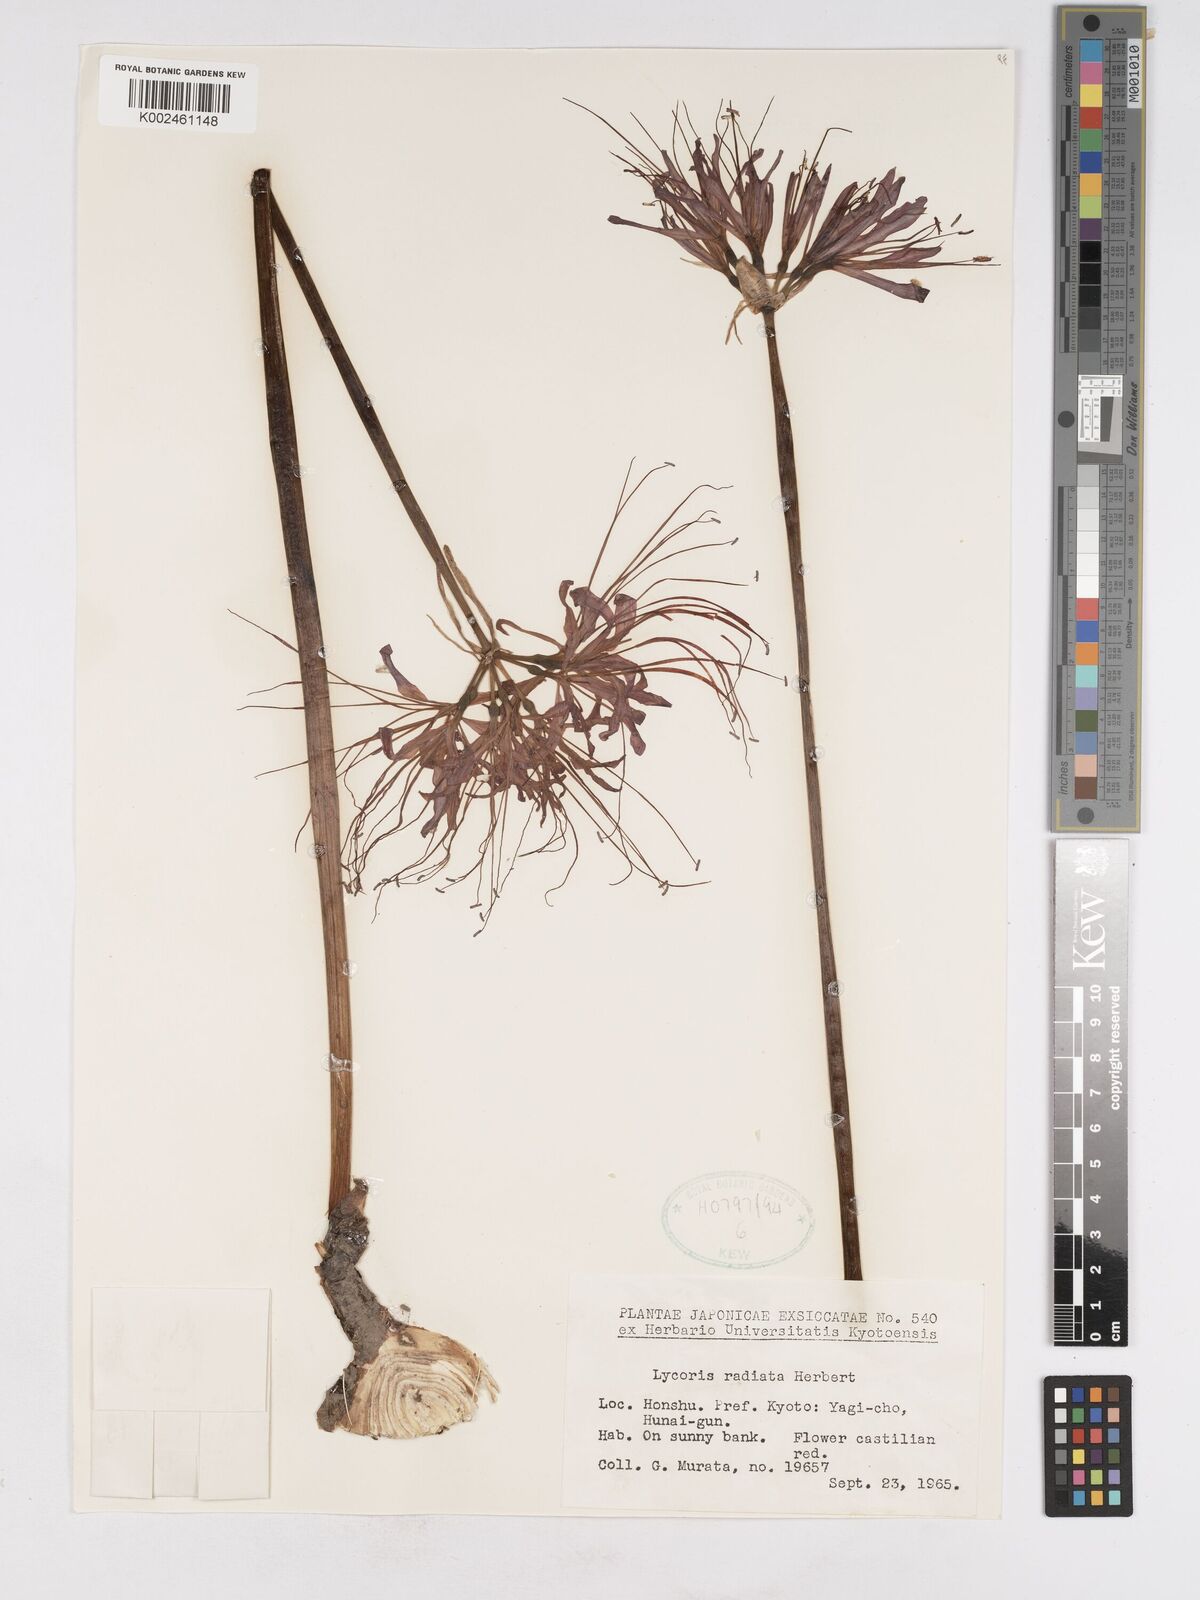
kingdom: Plantae
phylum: Tracheophyta
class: Liliopsida
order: Asparagales
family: Amaryllidaceae
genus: Lycoris
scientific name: Lycoris radiata
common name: Red spider lily
